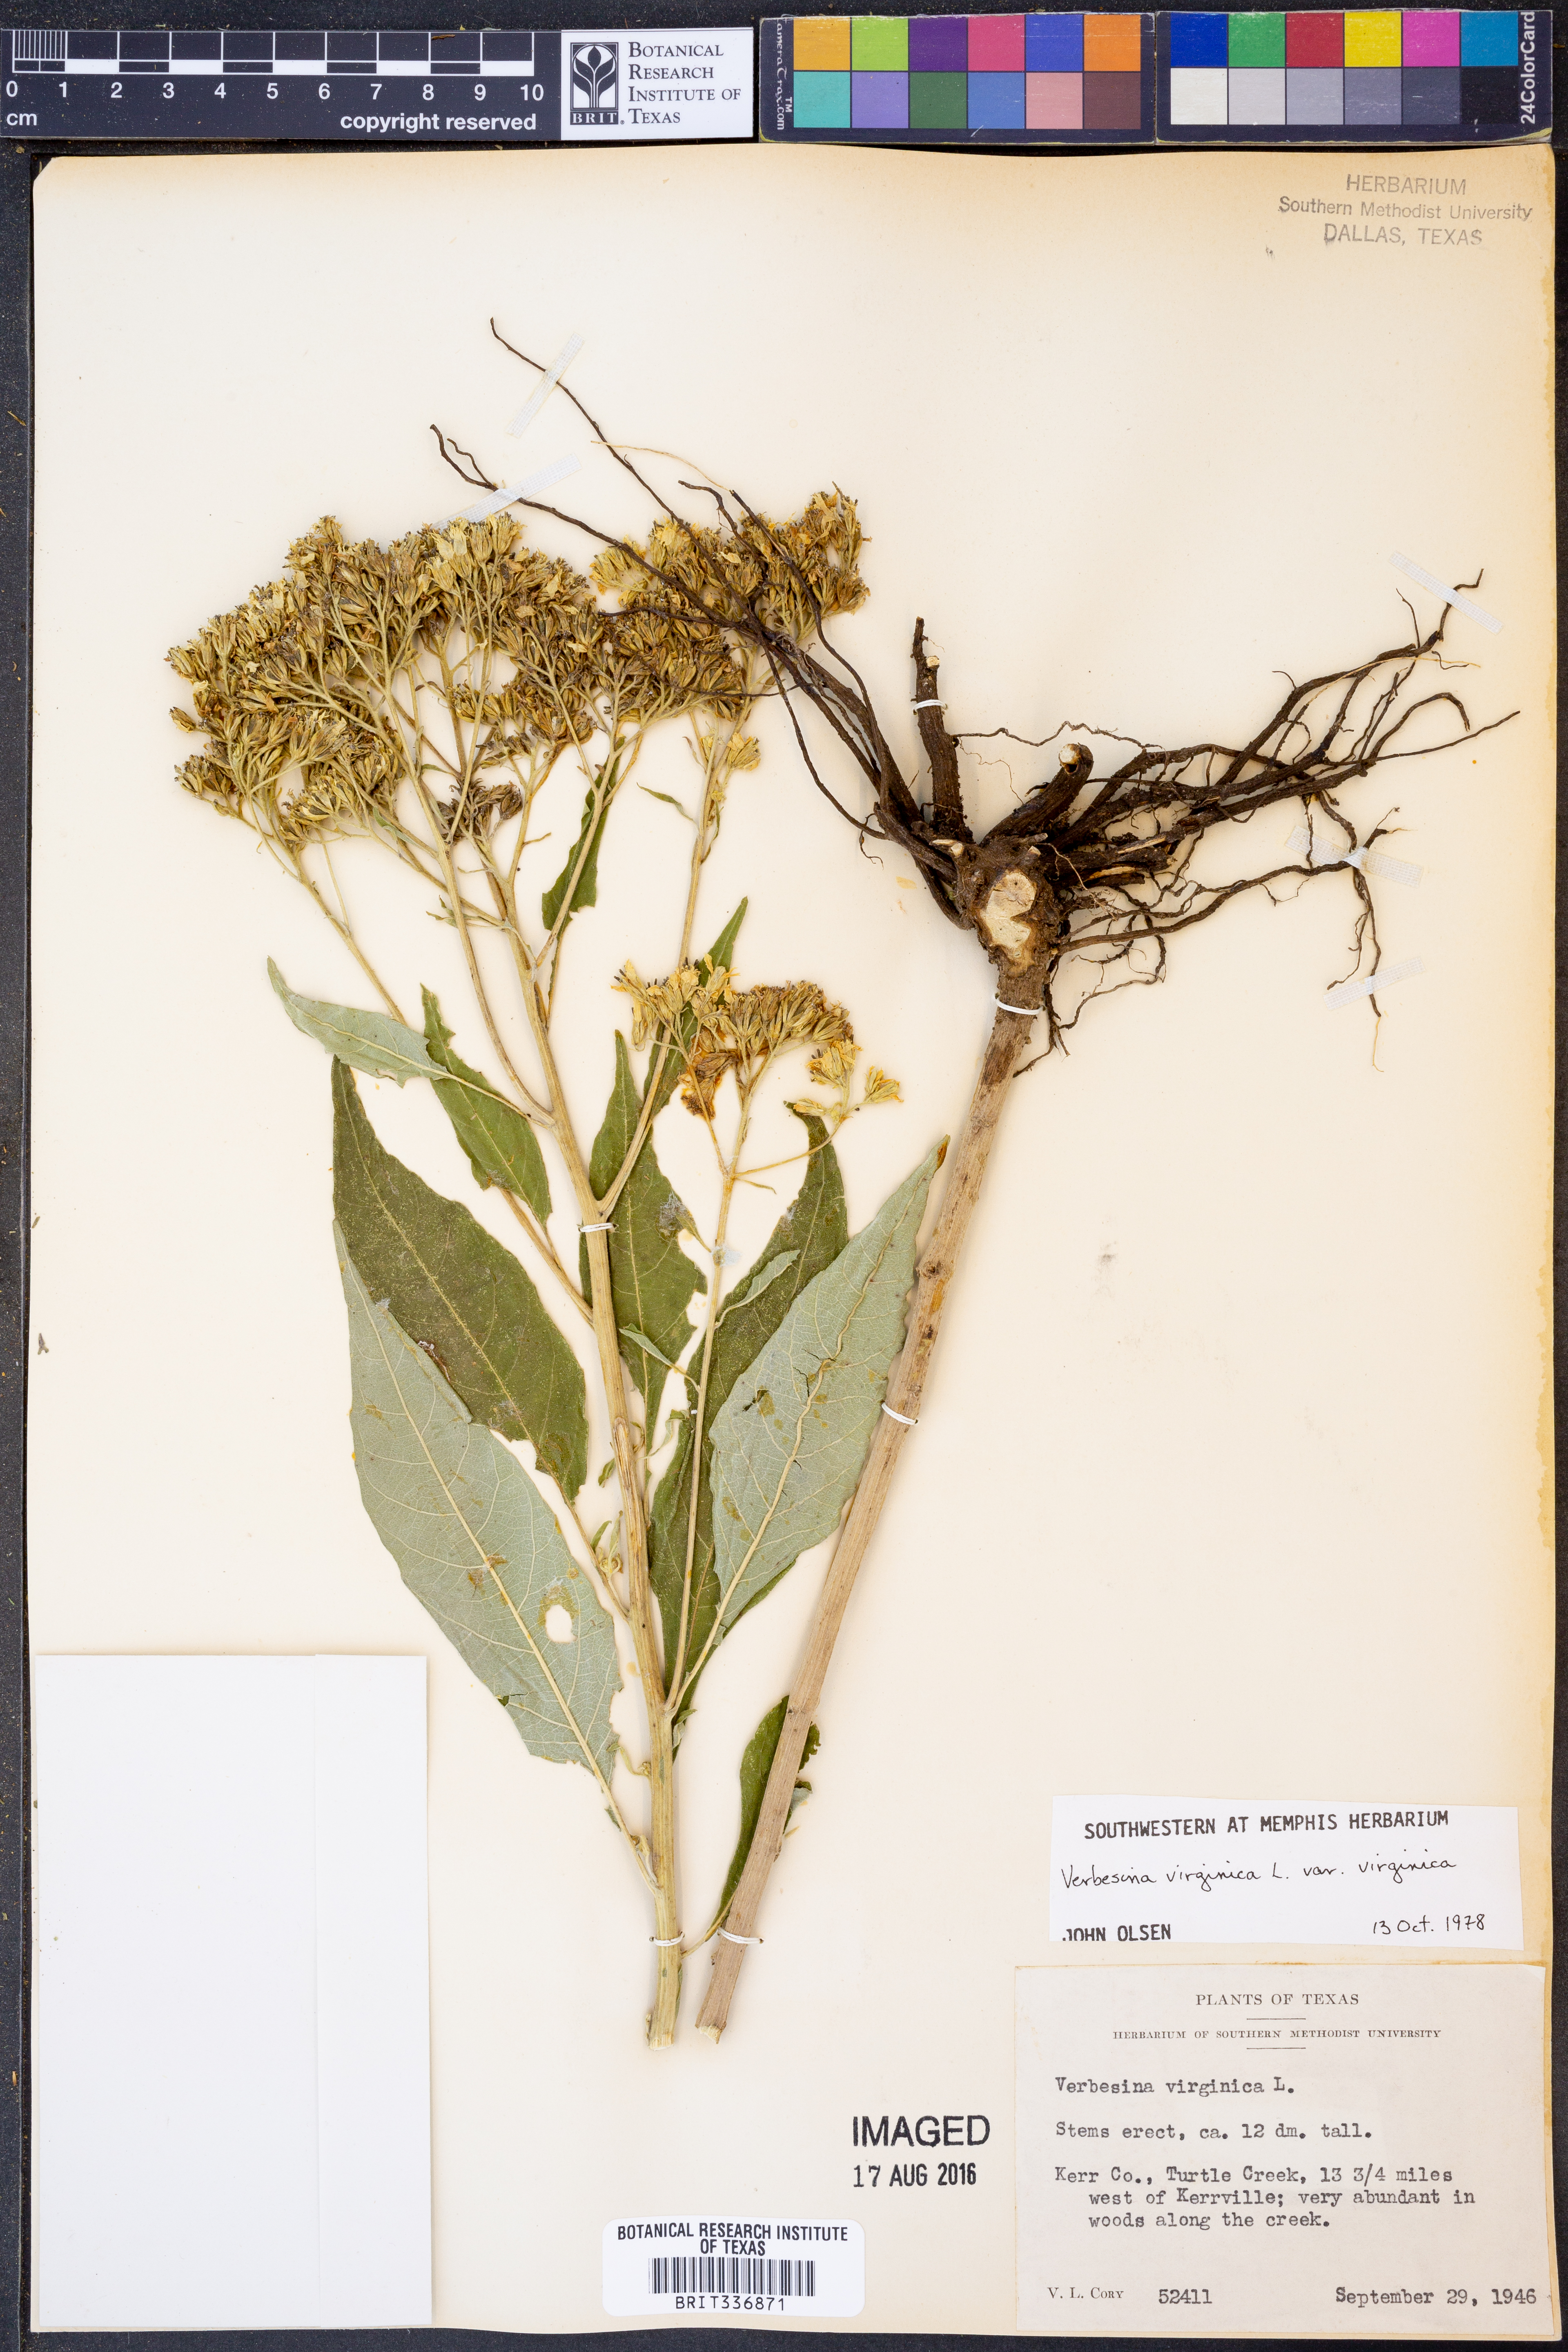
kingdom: Plantae
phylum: Tracheophyta
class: Magnoliopsida
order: Asterales
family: Asteraceae
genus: Verbesina
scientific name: Verbesina virginica
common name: Frostweed
